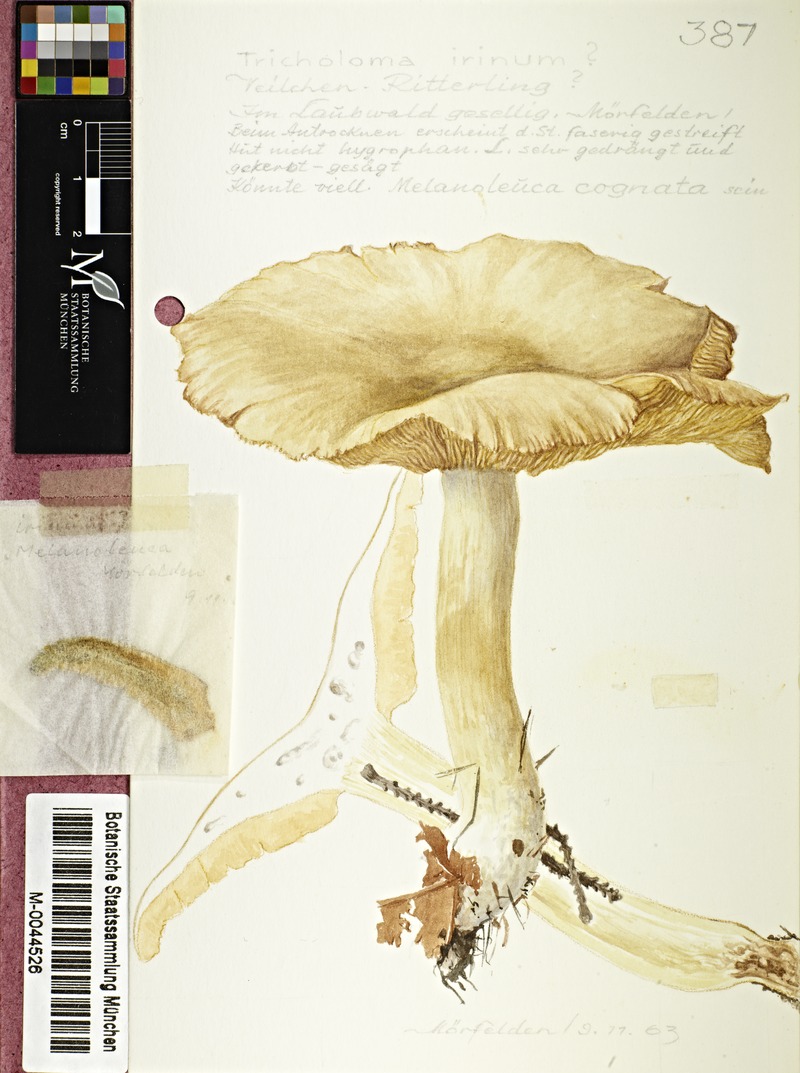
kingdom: Fungi
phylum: Basidiomycota
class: Agaricomycetes
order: Agaricales
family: Tricholomataceae
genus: Lepista
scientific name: Lepista irina
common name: Flowery blewit
